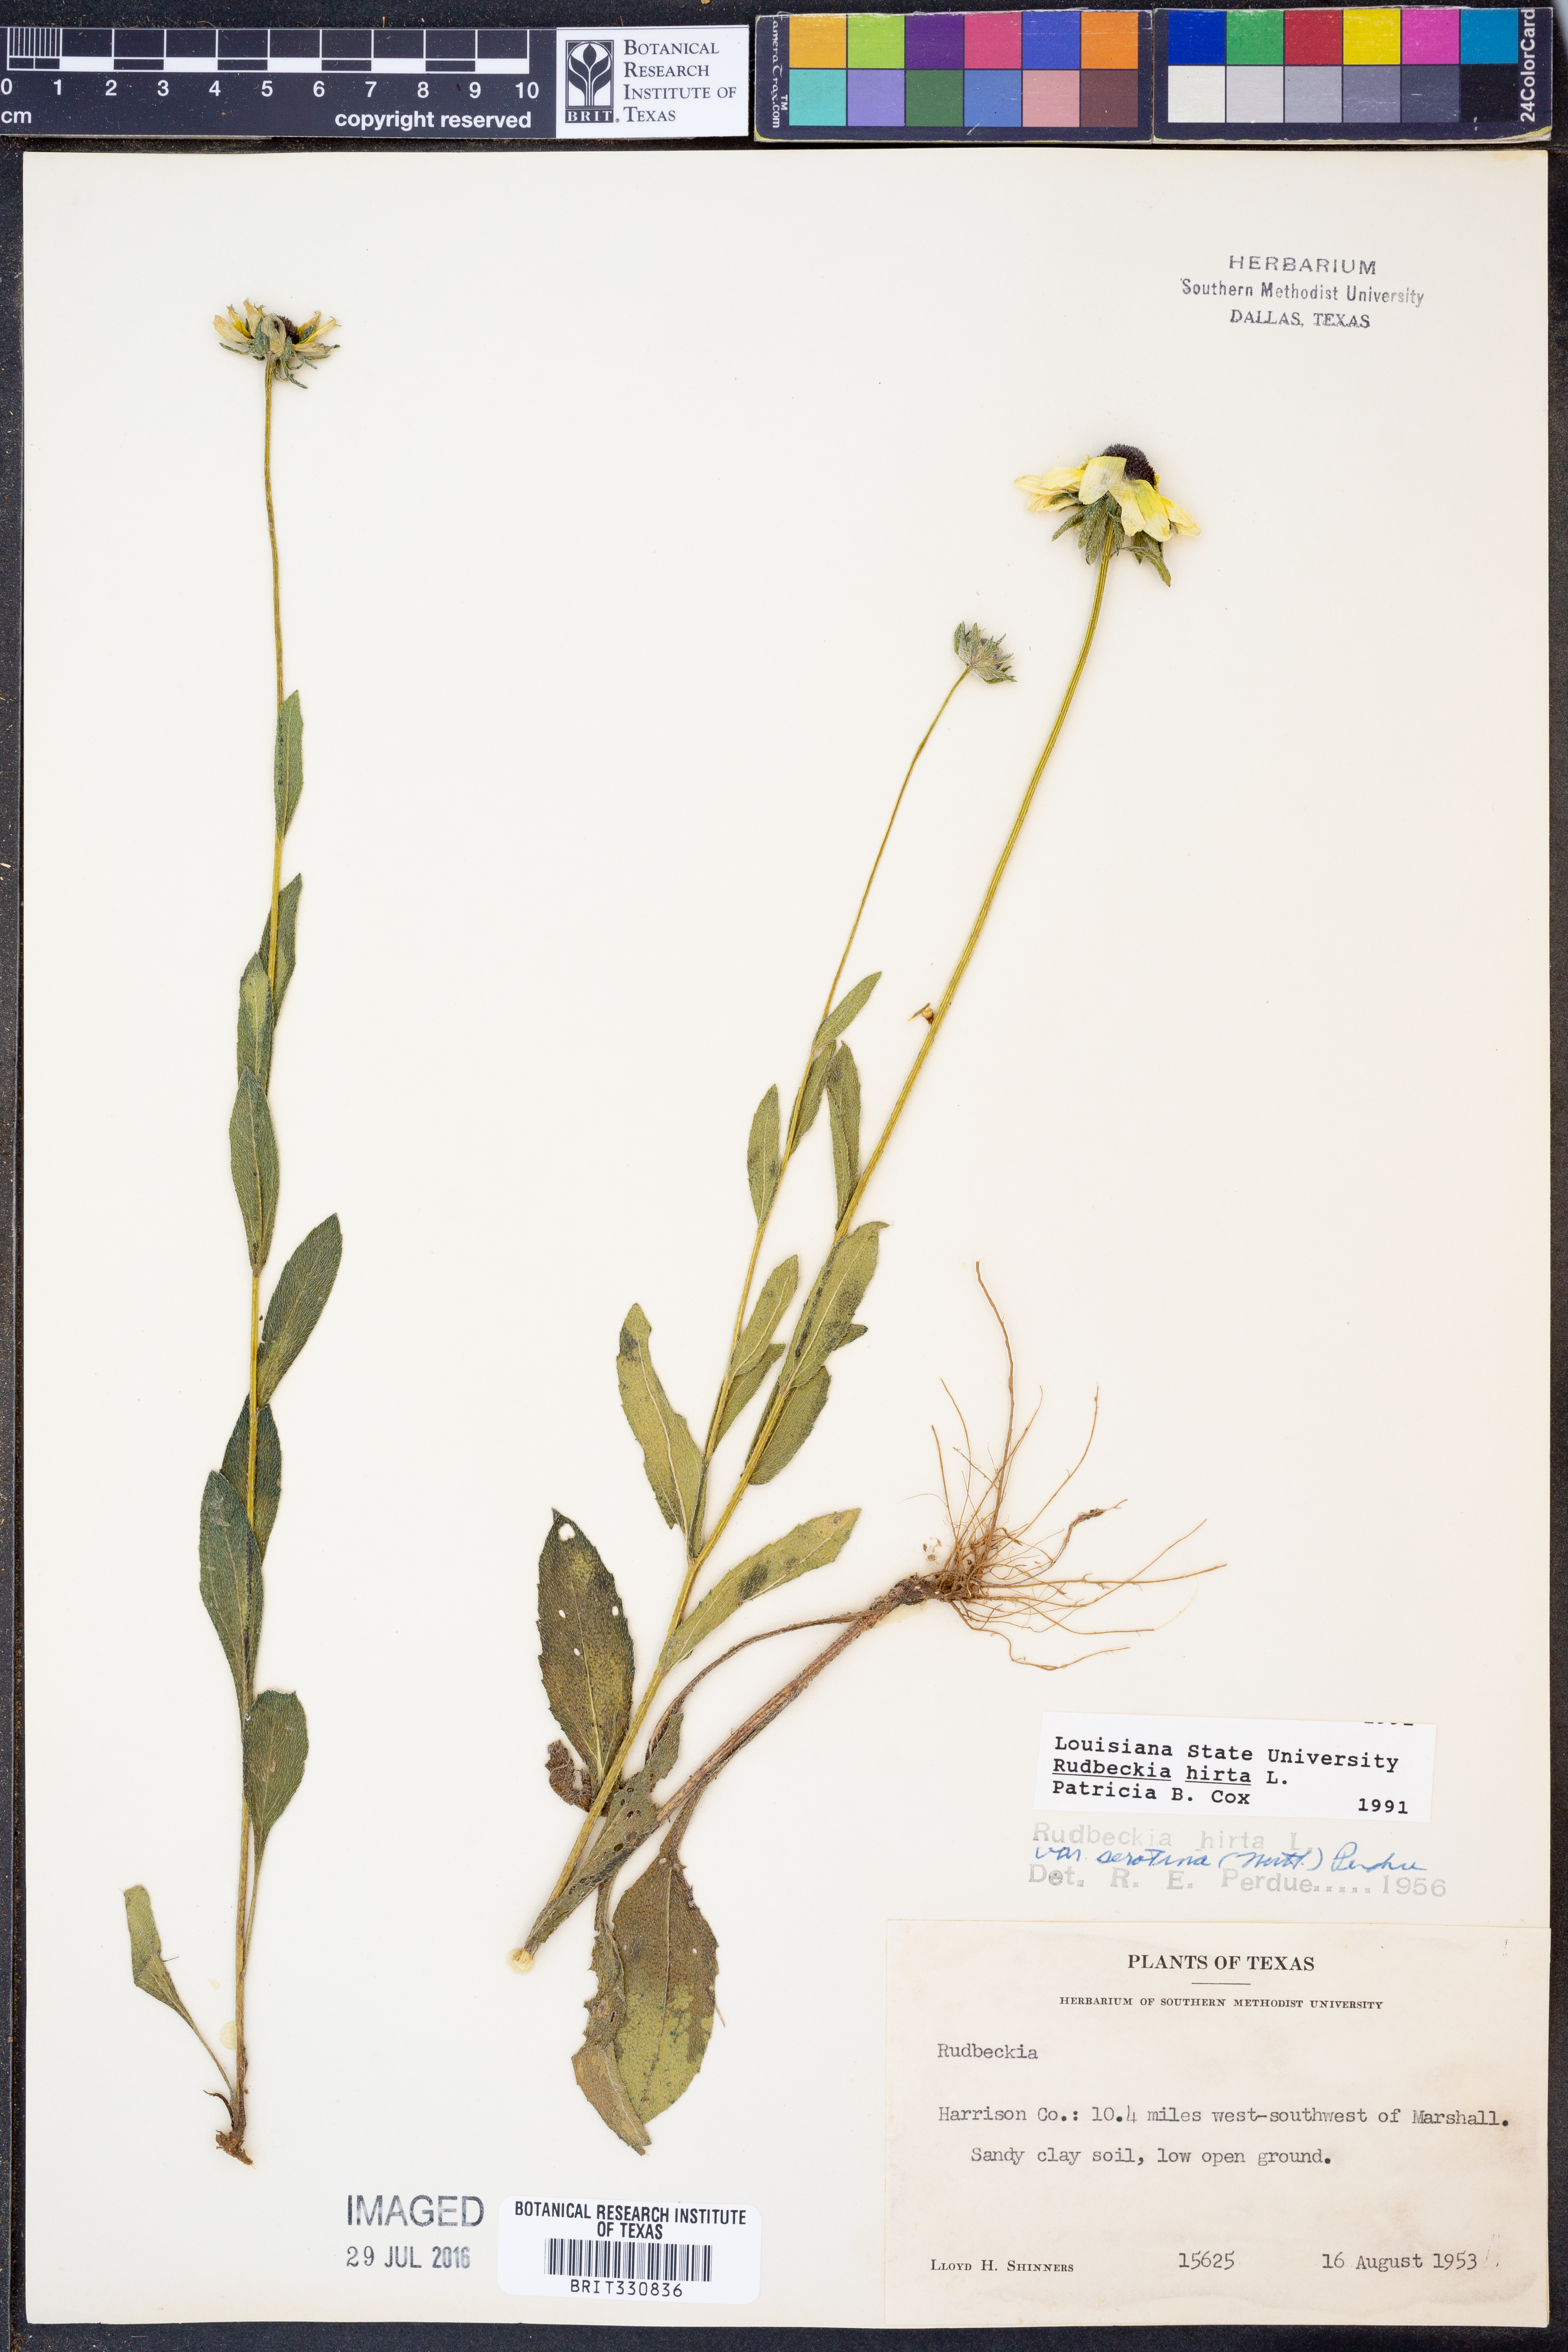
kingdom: Plantae
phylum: Tracheophyta
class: Magnoliopsida
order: Asterales
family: Asteraceae
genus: Rudbeckia
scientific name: Rudbeckia hirta
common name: Black-eyed-susan
